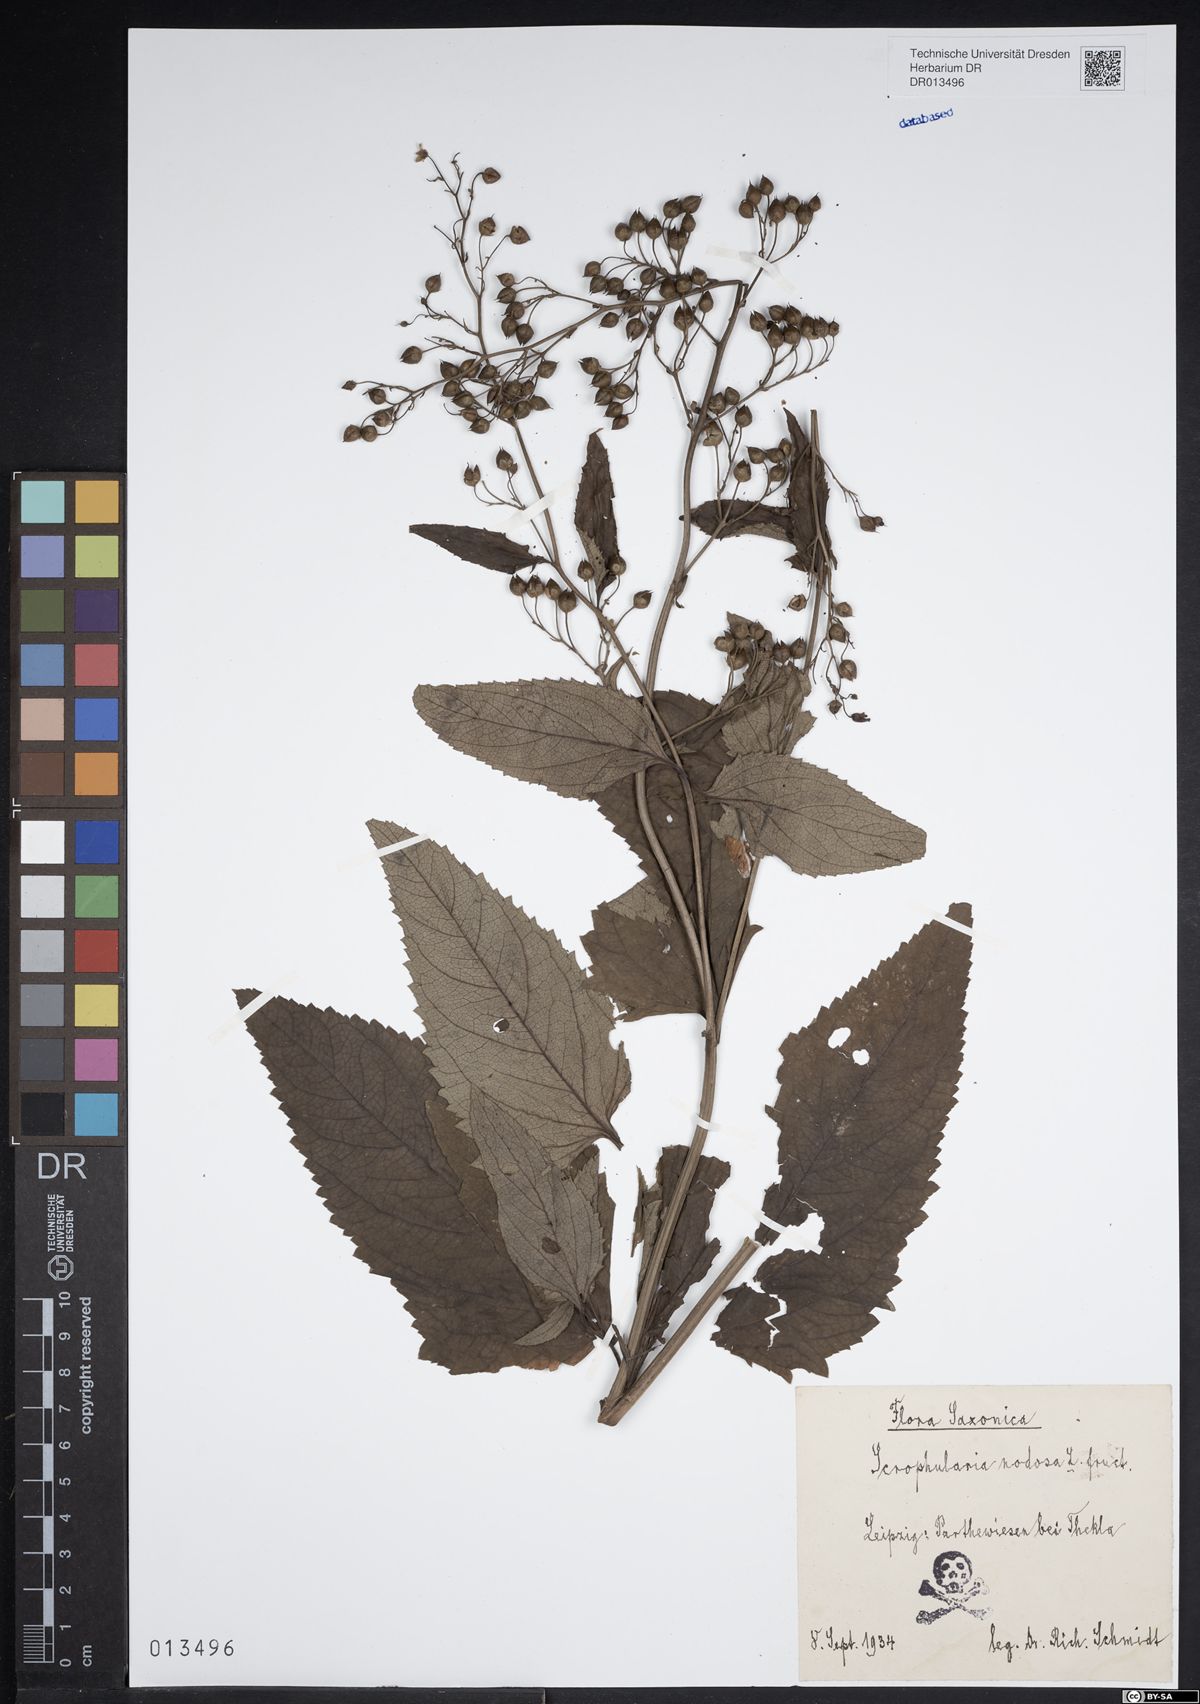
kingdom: Plantae
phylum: Tracheophyta
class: Magnoliopsida
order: Lamiales
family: Scrophulariaceae
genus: Scrophularia
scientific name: Scrophularia nodosa
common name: Common figwort
